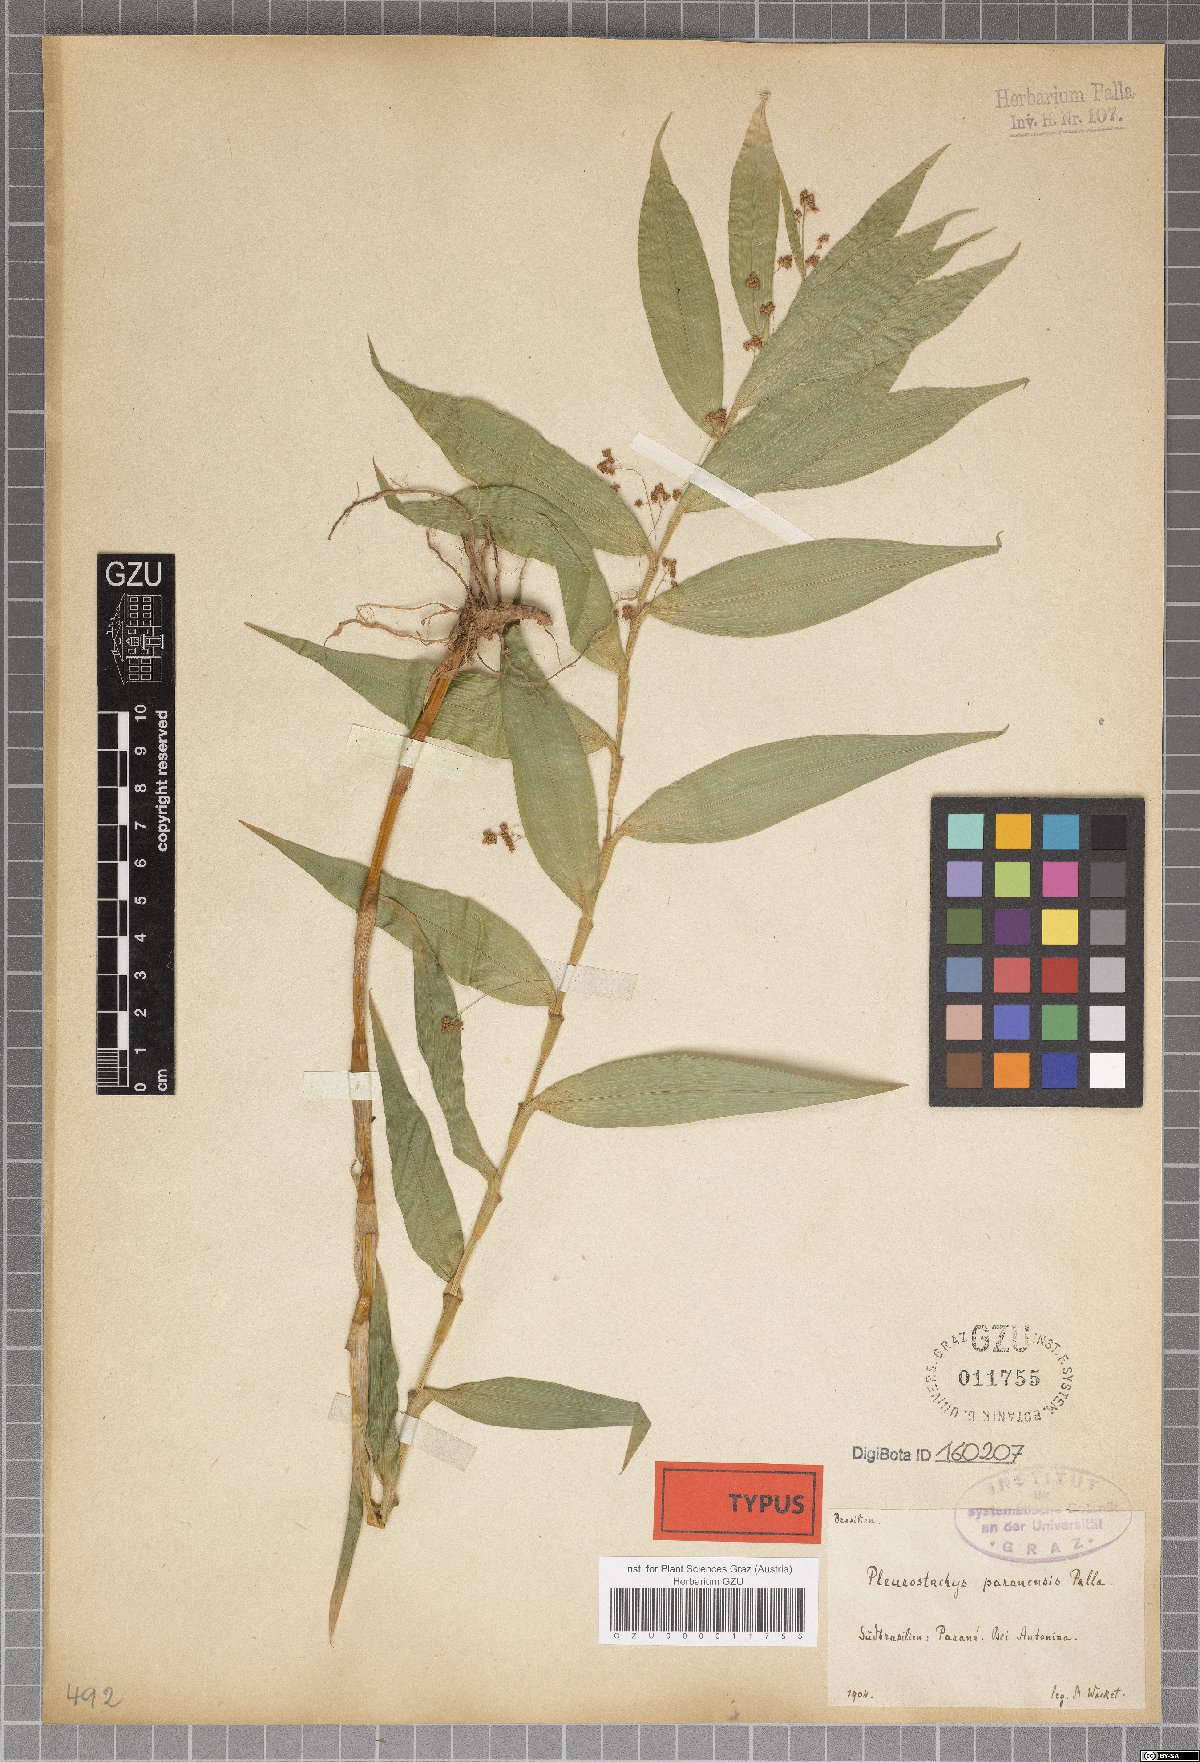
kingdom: Plantae
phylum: Tracheophyta
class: Liliopsida
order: Poales
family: Cyperaceae
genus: Rhynchospora
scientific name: Rhynchospora Pleurostachys ulei
